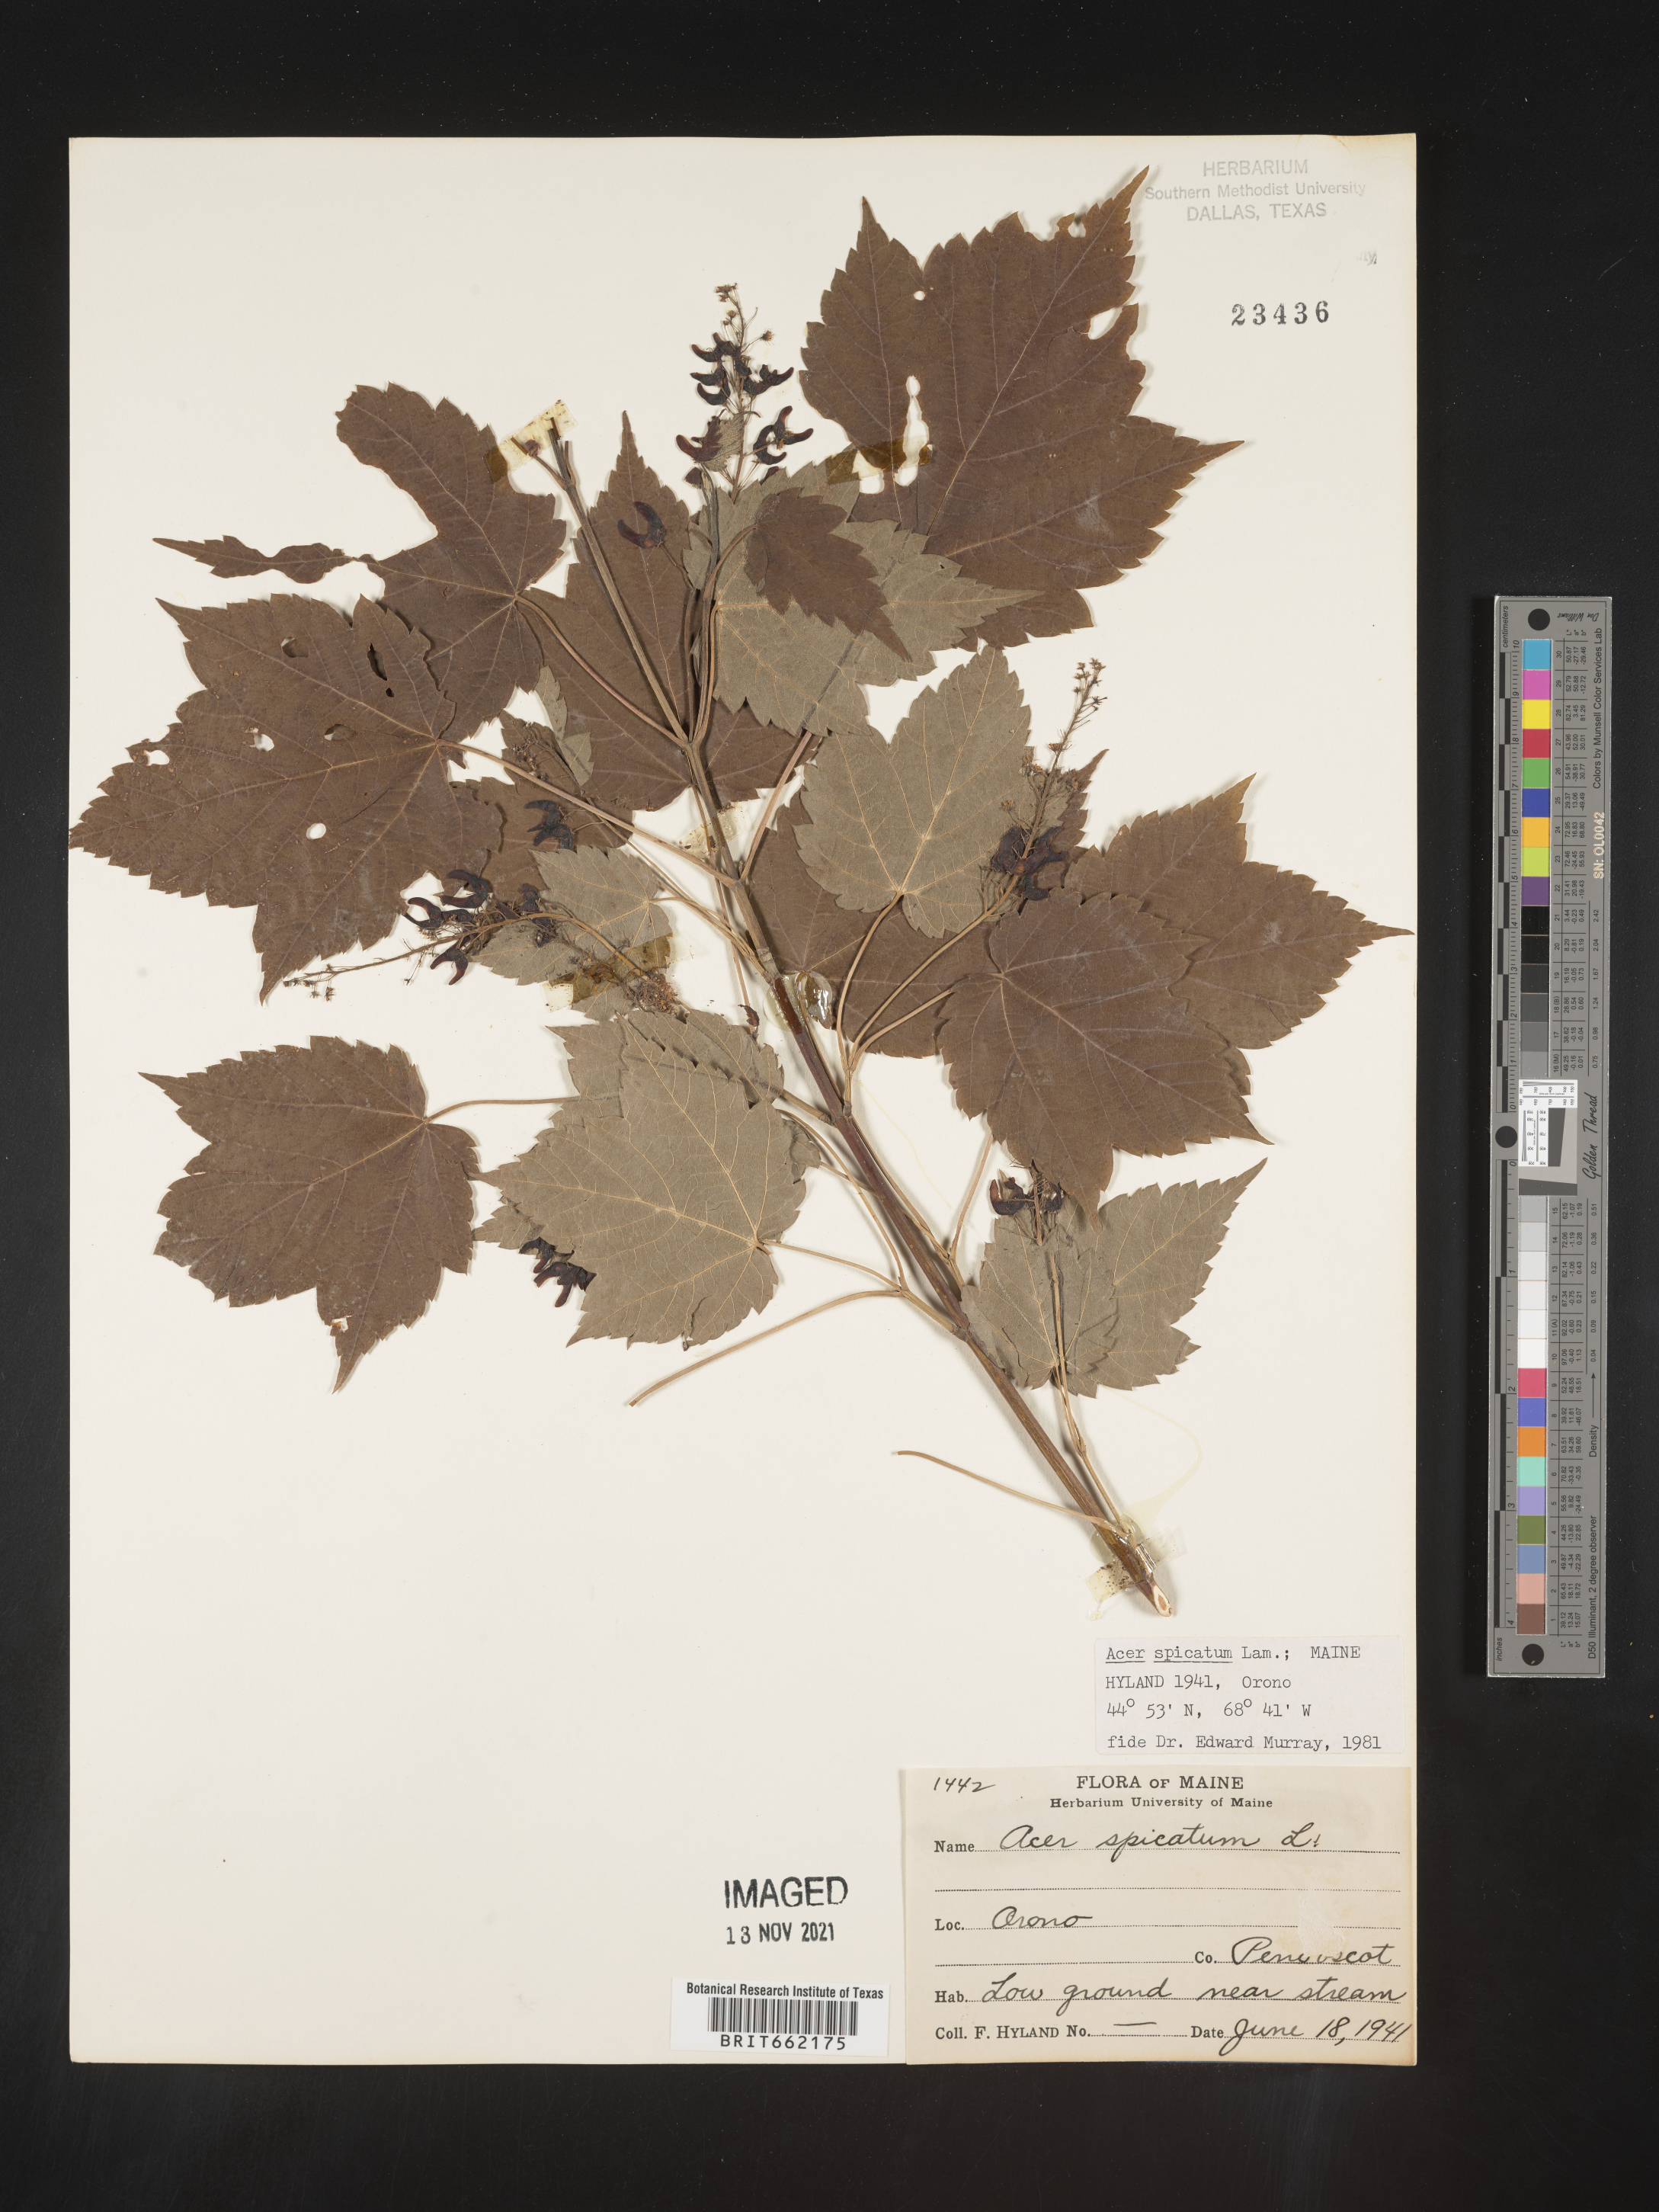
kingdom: Plantae
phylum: Tracheophyta
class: Magnoliopsida
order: Sapindales
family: Sapindaceae
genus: Acer
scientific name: Acer spicatum
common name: Mountain maple
